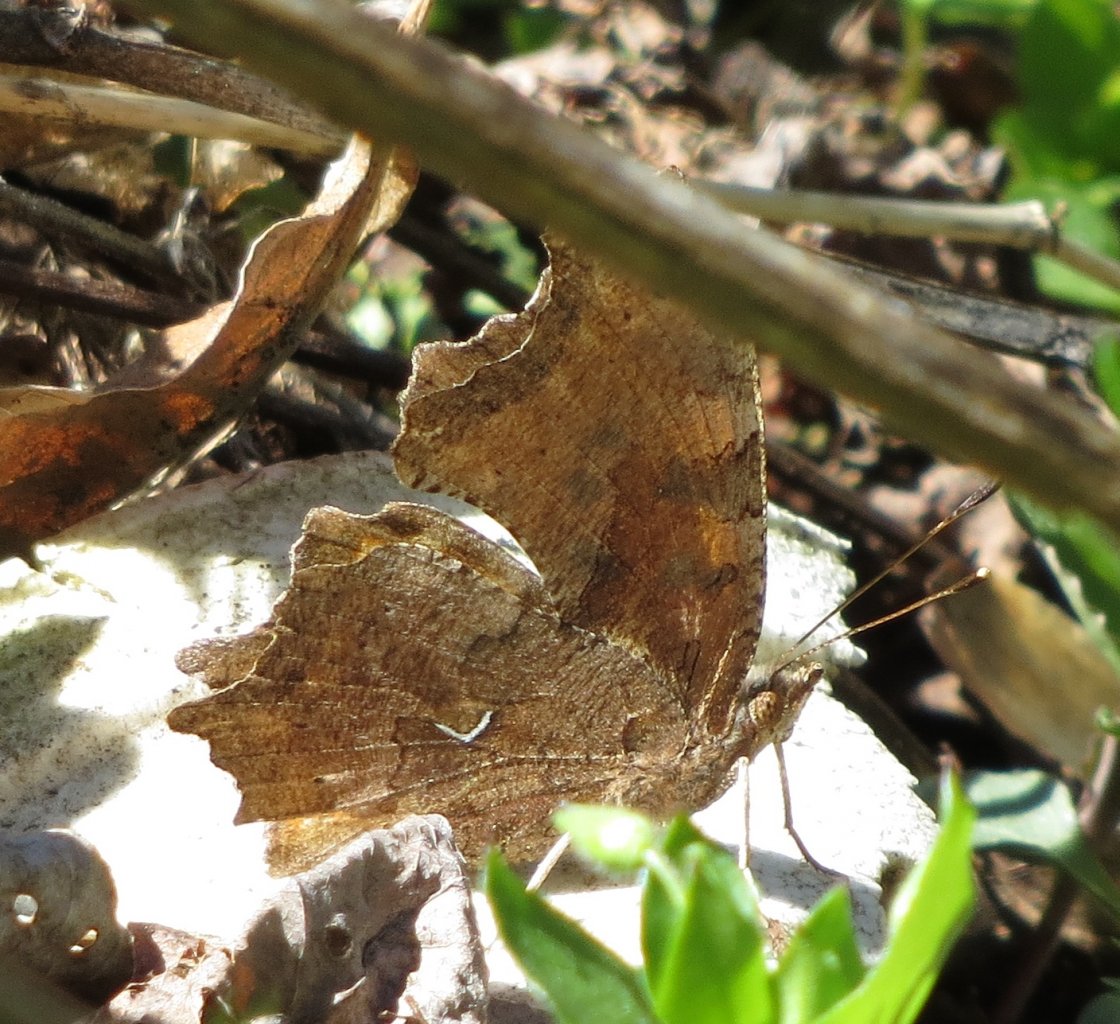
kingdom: Animalia
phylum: Arthropoda
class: Insecta
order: Lepidoptera
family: Nymphalidae
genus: Polygonia
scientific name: Polygonia comma
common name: Eastern Comma
